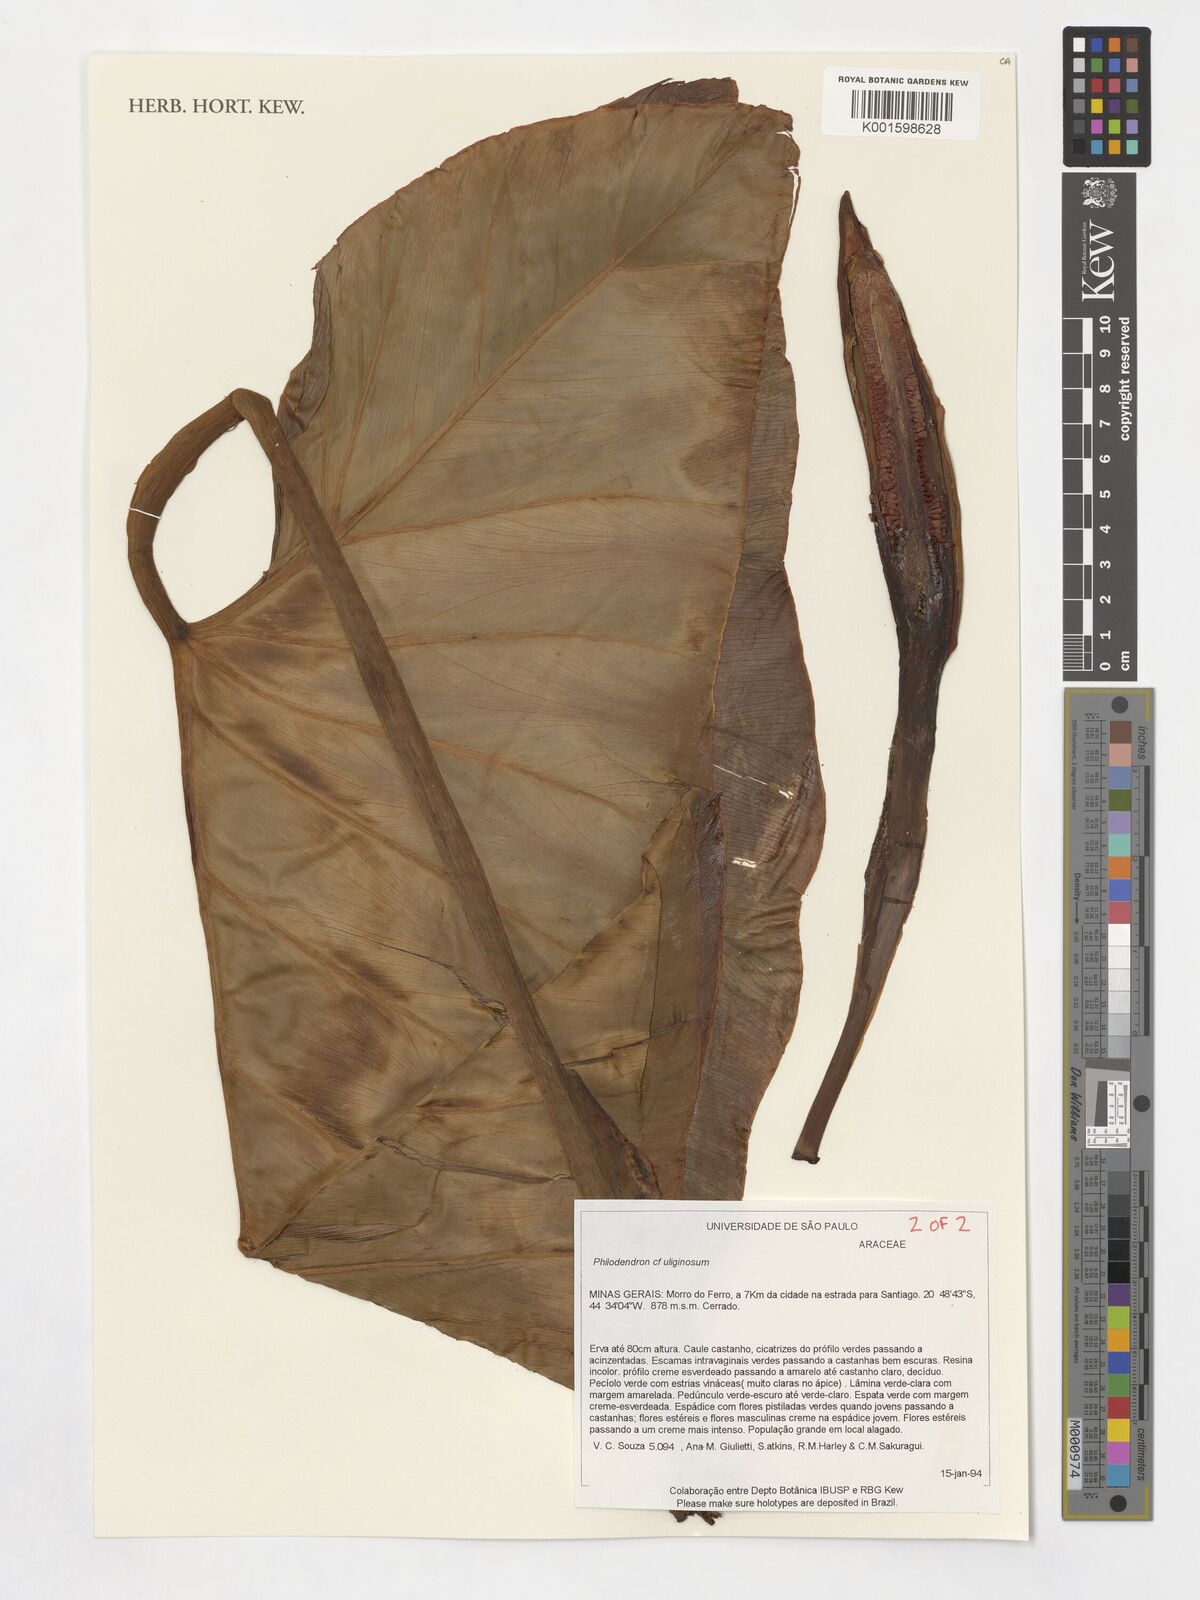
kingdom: Plantae
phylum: Tracheophyta
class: Liliopsida
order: Alismatales
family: Araceae
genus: Thaumatophyllum
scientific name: Thaumatophyllum uliginosum
